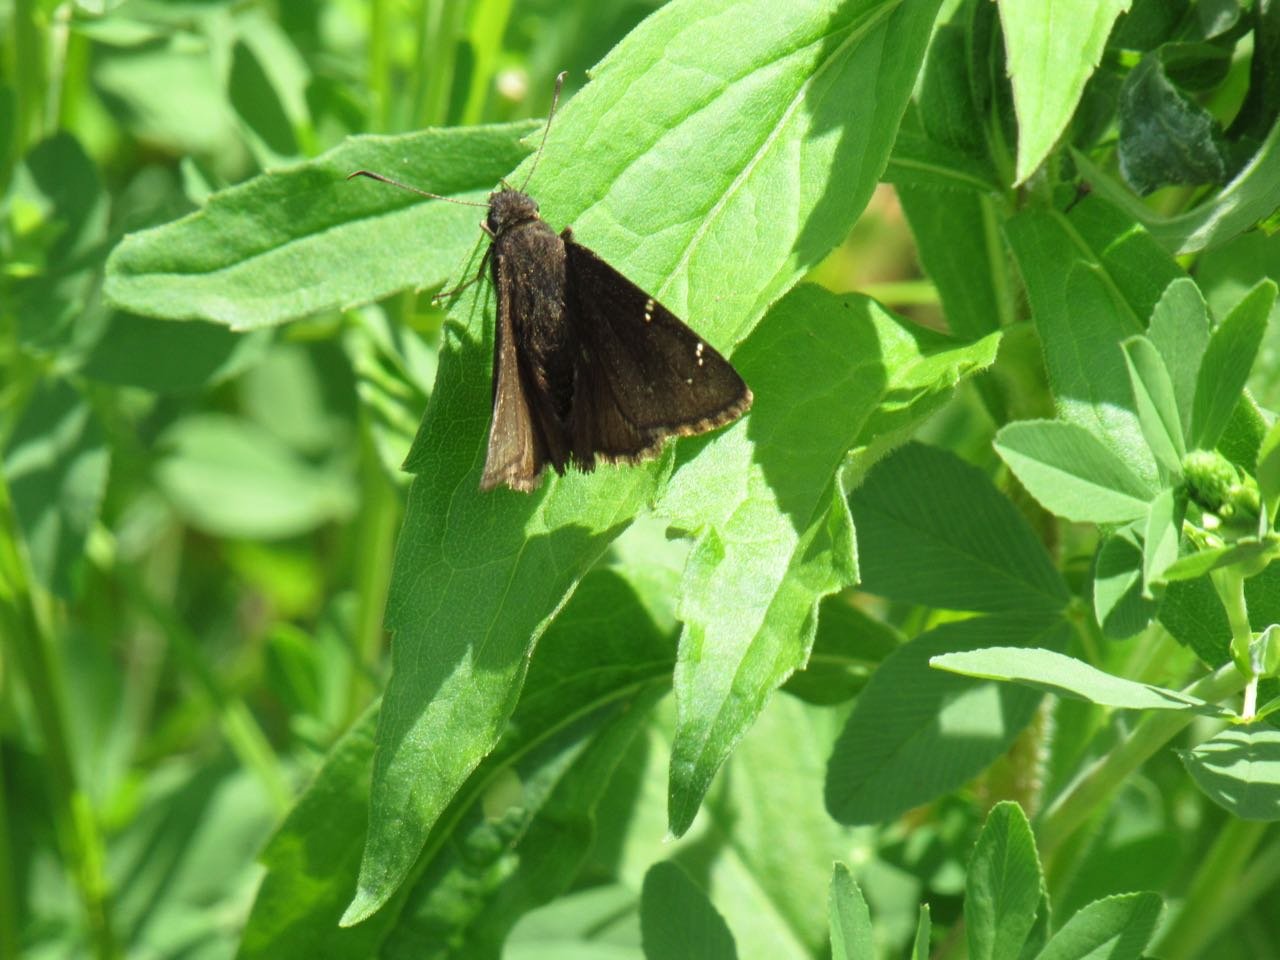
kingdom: Animalia
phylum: Arthropoda
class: Insecta
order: Lepidoptera
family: Hesperiidae
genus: Autochton
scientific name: Autochton
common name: Northern Cloudywing
